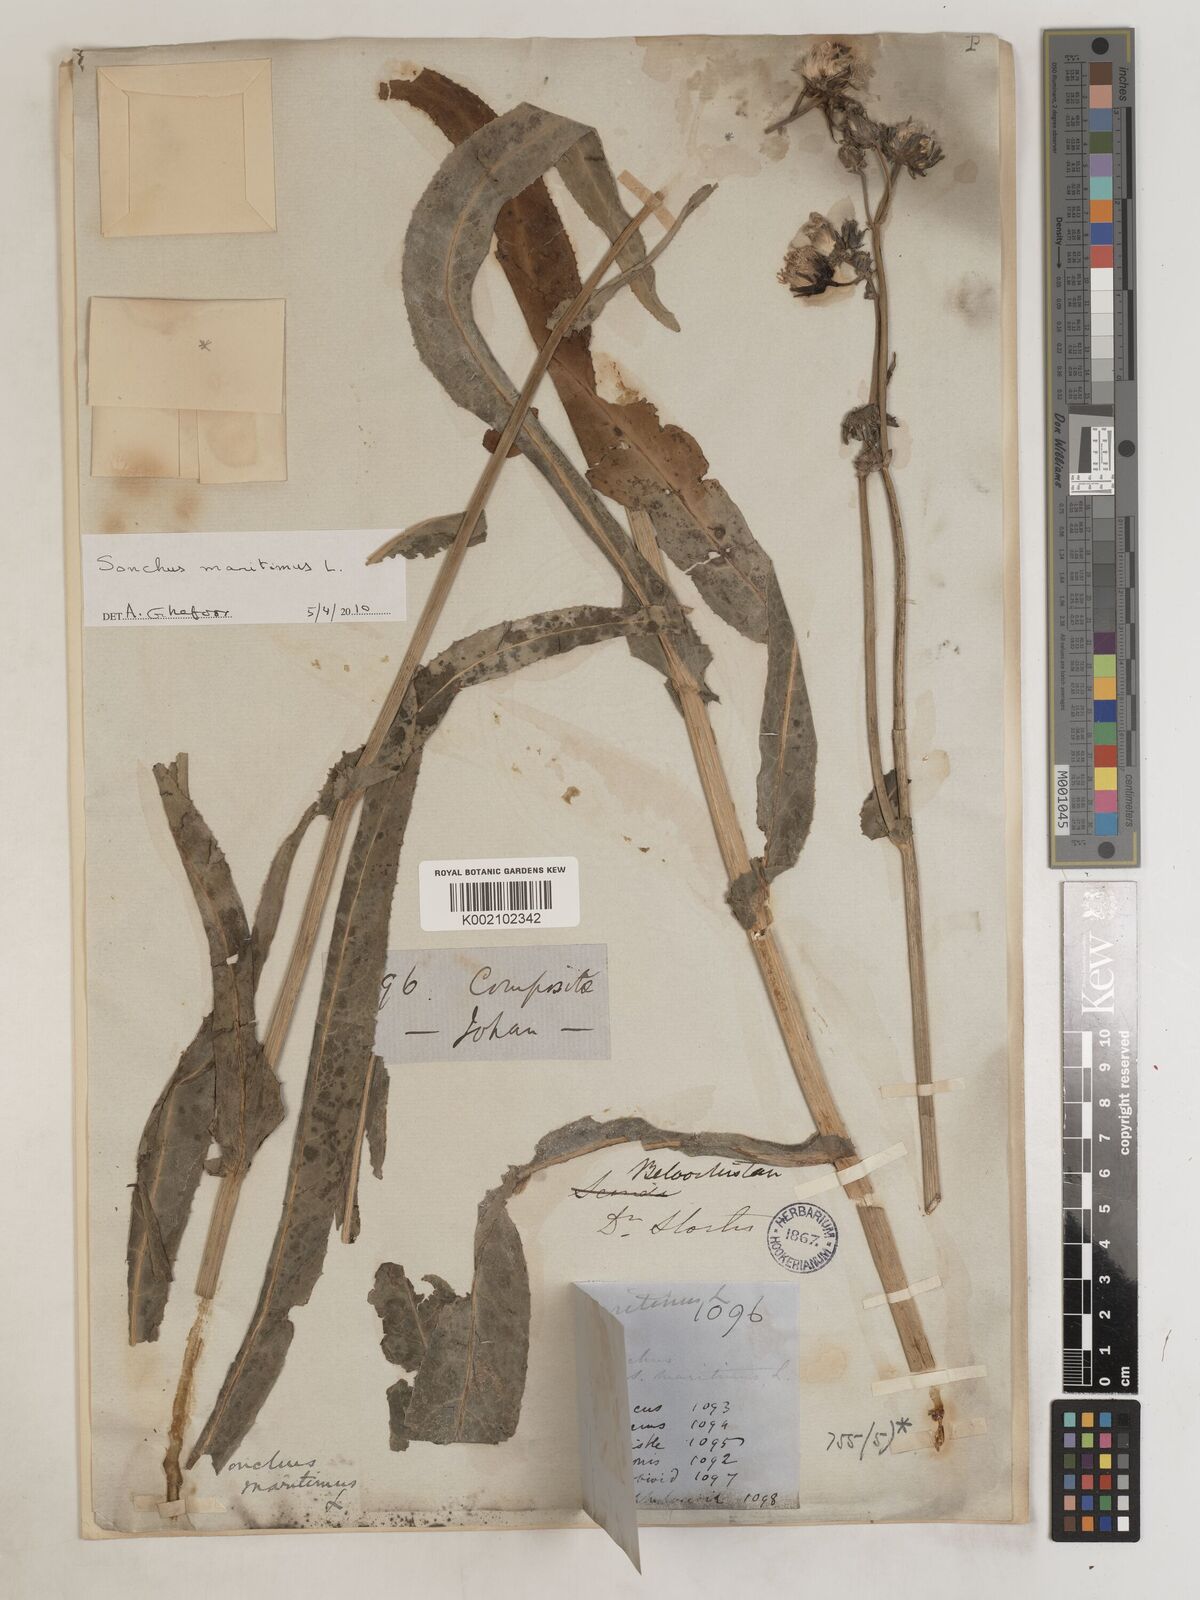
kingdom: Plantae
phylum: Tracheophyta
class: Magnoliopsida
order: Asterales
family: Asteraceae
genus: Sonchus
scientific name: Sonchus maritimus
